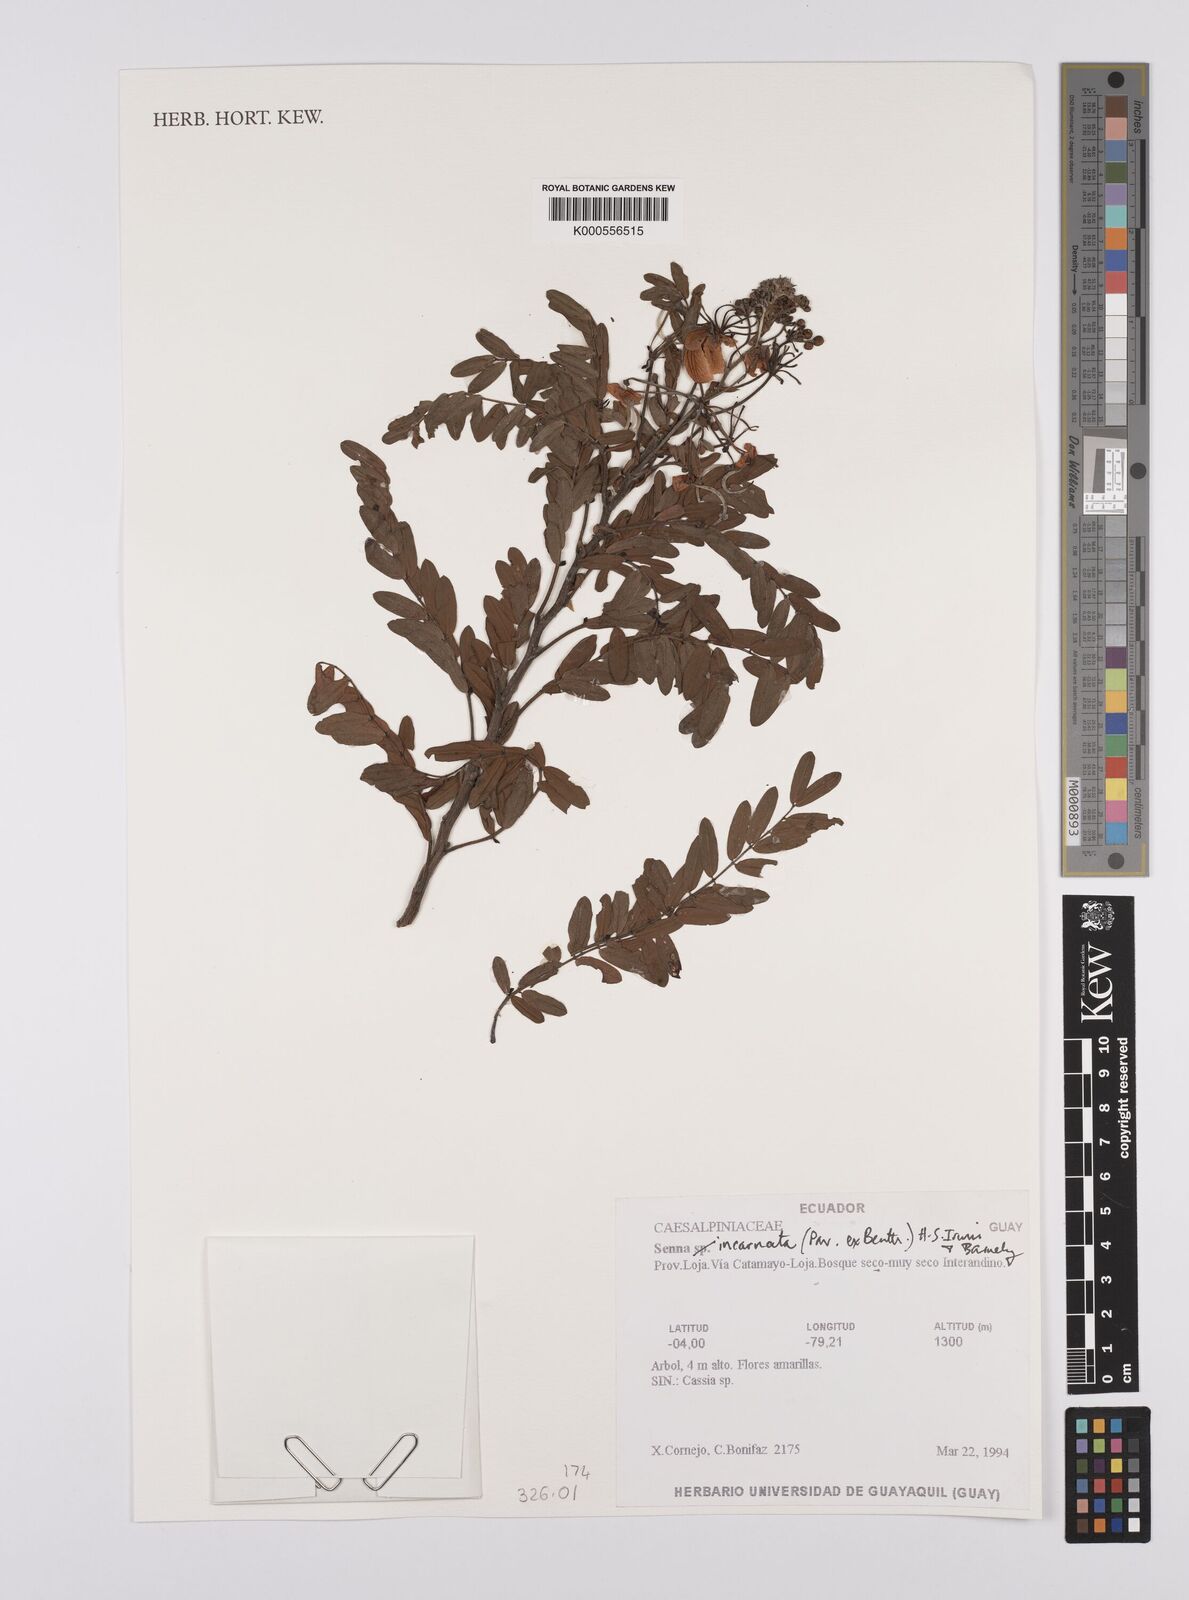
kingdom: Plantae
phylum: Tracheophyta
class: Magnoliopsida
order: Fabales
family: Fabaceae
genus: Senna
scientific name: Senna incarnata
